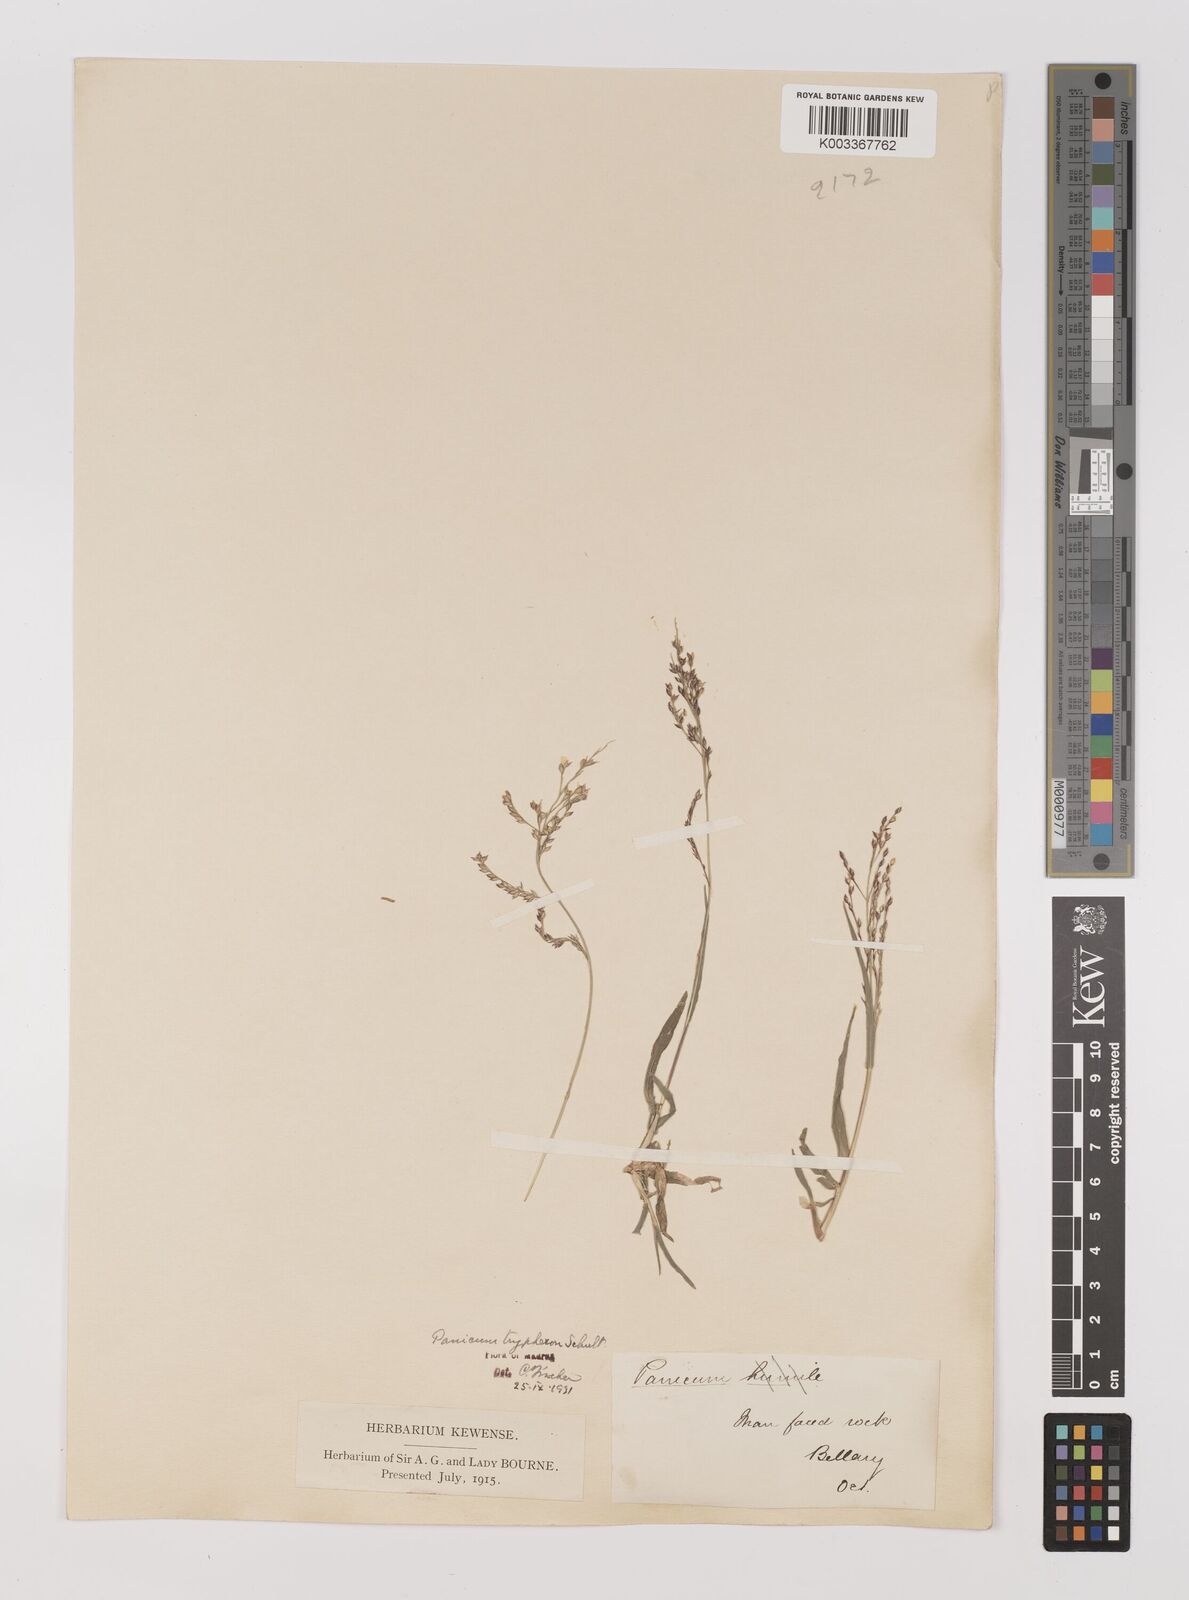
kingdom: Plantae
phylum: Tracheophyta
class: Liliopsida
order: Poales
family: Poaceae
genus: Panicum
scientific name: Panicum curviflorum
